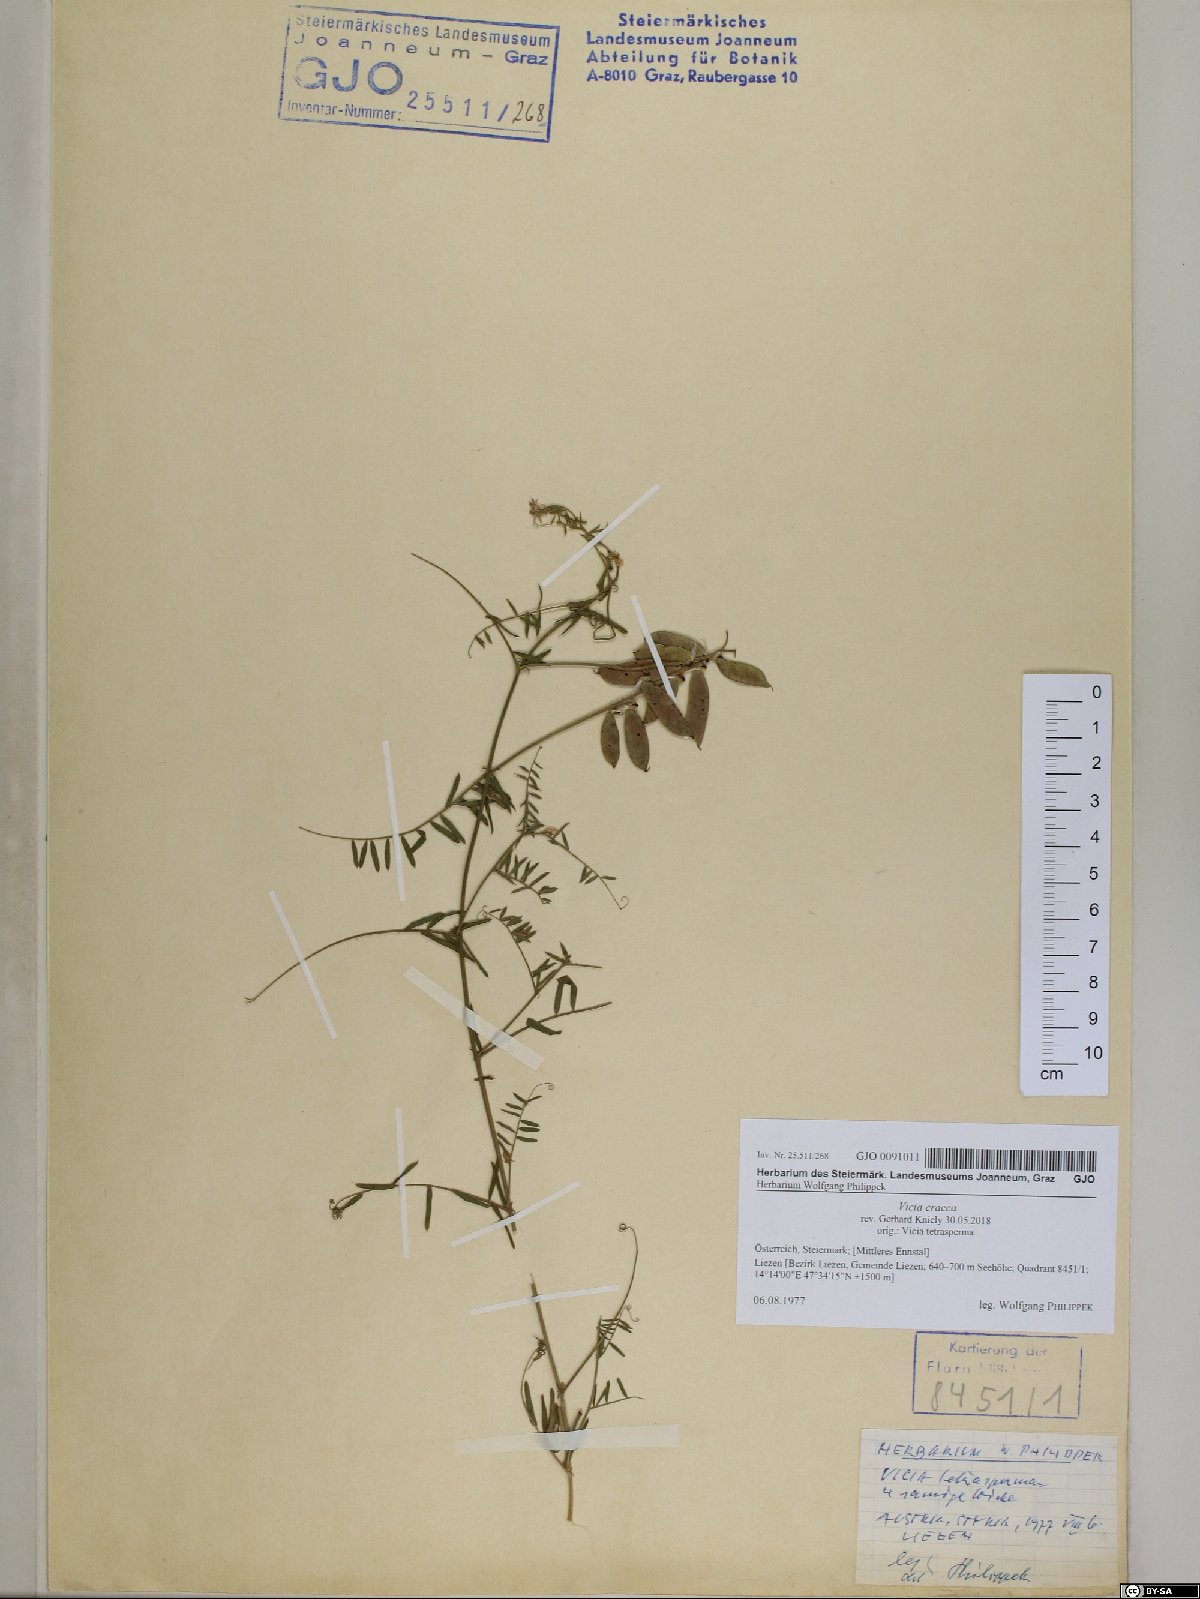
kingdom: Plantae
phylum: Tracheophyta
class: Magnoliopsida
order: Fabales
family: Fabaceae
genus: Vicia
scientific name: Vicia cracca
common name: Bird vetch
